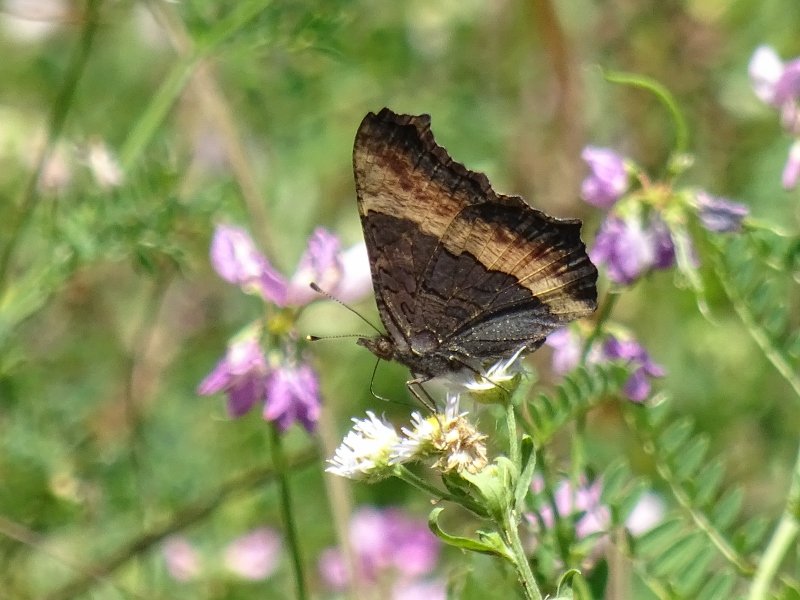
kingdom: Animalia
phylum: Arthropoda
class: Insecta
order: Lepidoptera
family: Nymphalidae
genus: Aglais
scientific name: Aglais milberti
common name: Milbert's Tortoiseshell
